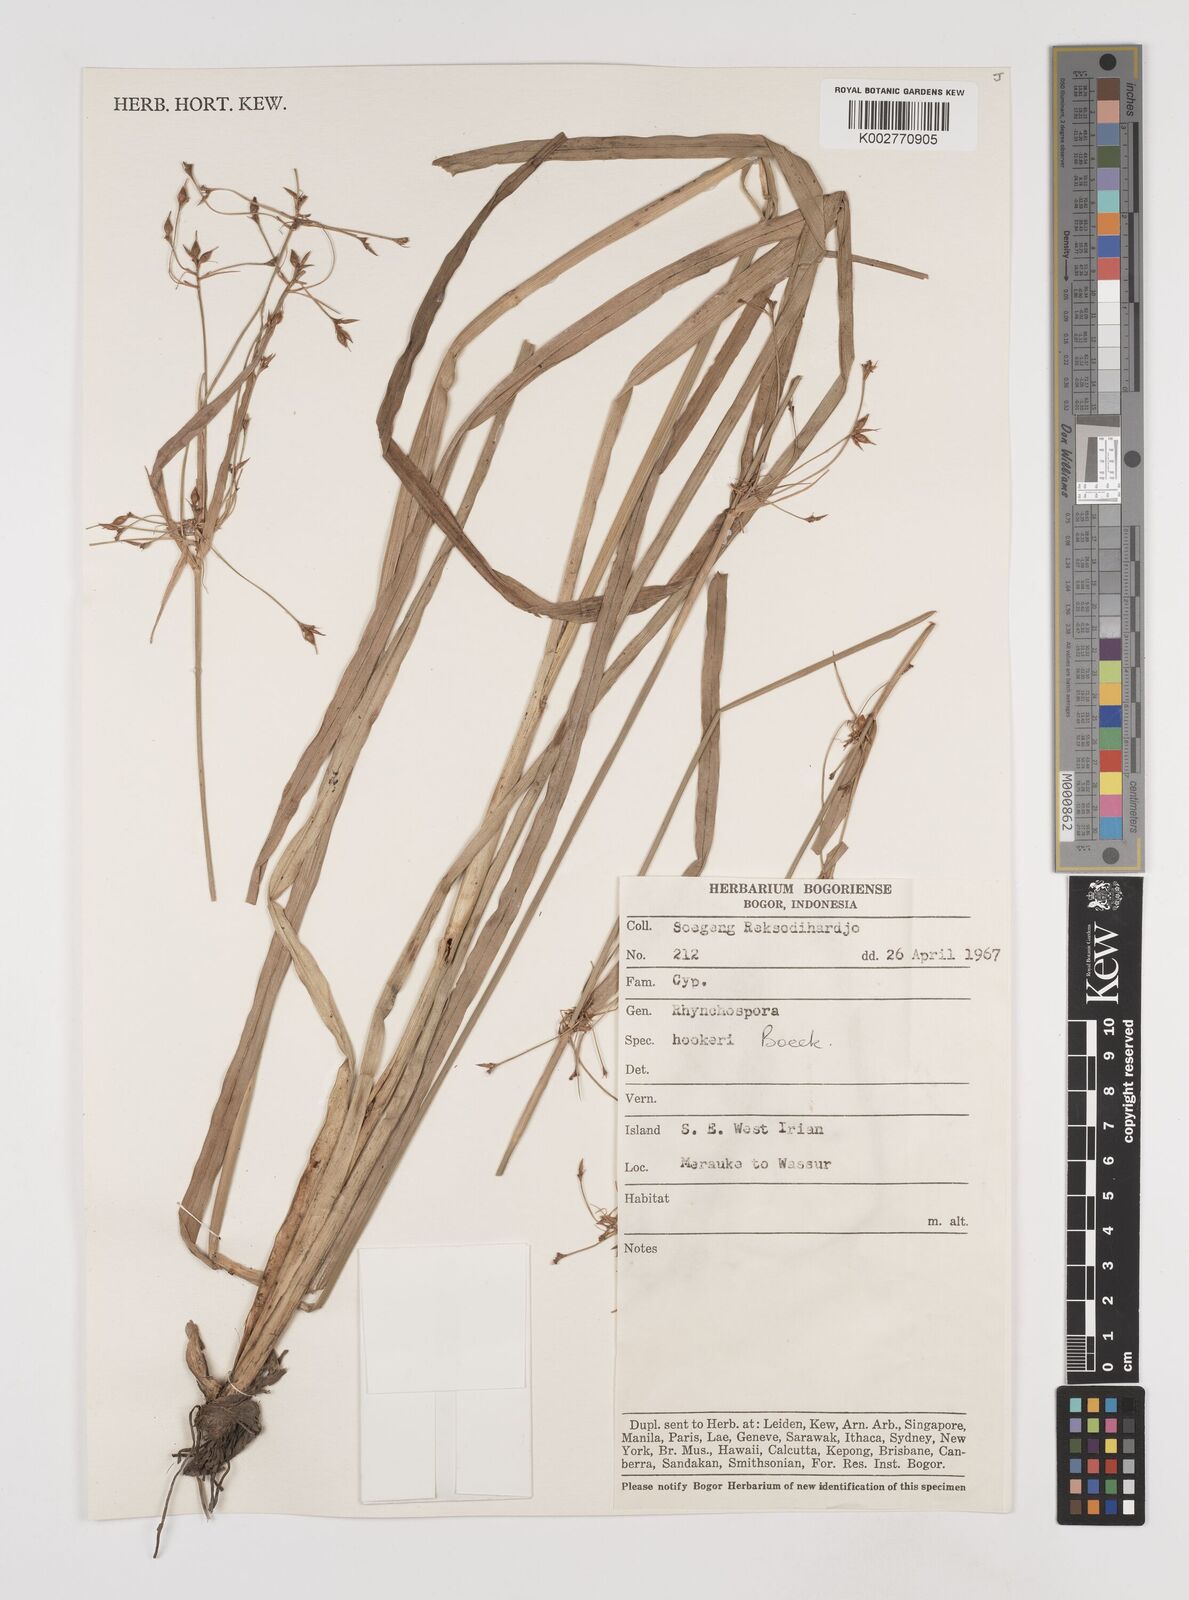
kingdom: Plantae
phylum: Tracheophyta
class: Liliopsida
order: Poales
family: Cyperaceae
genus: Rhynchospora
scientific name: Rhynchospora corymbosa
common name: Golden beak sedge
